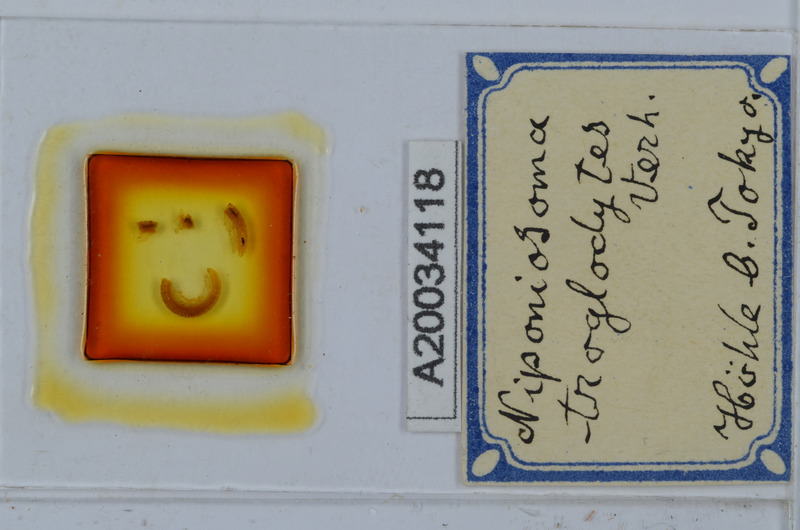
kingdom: Animalia
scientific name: Animalia
